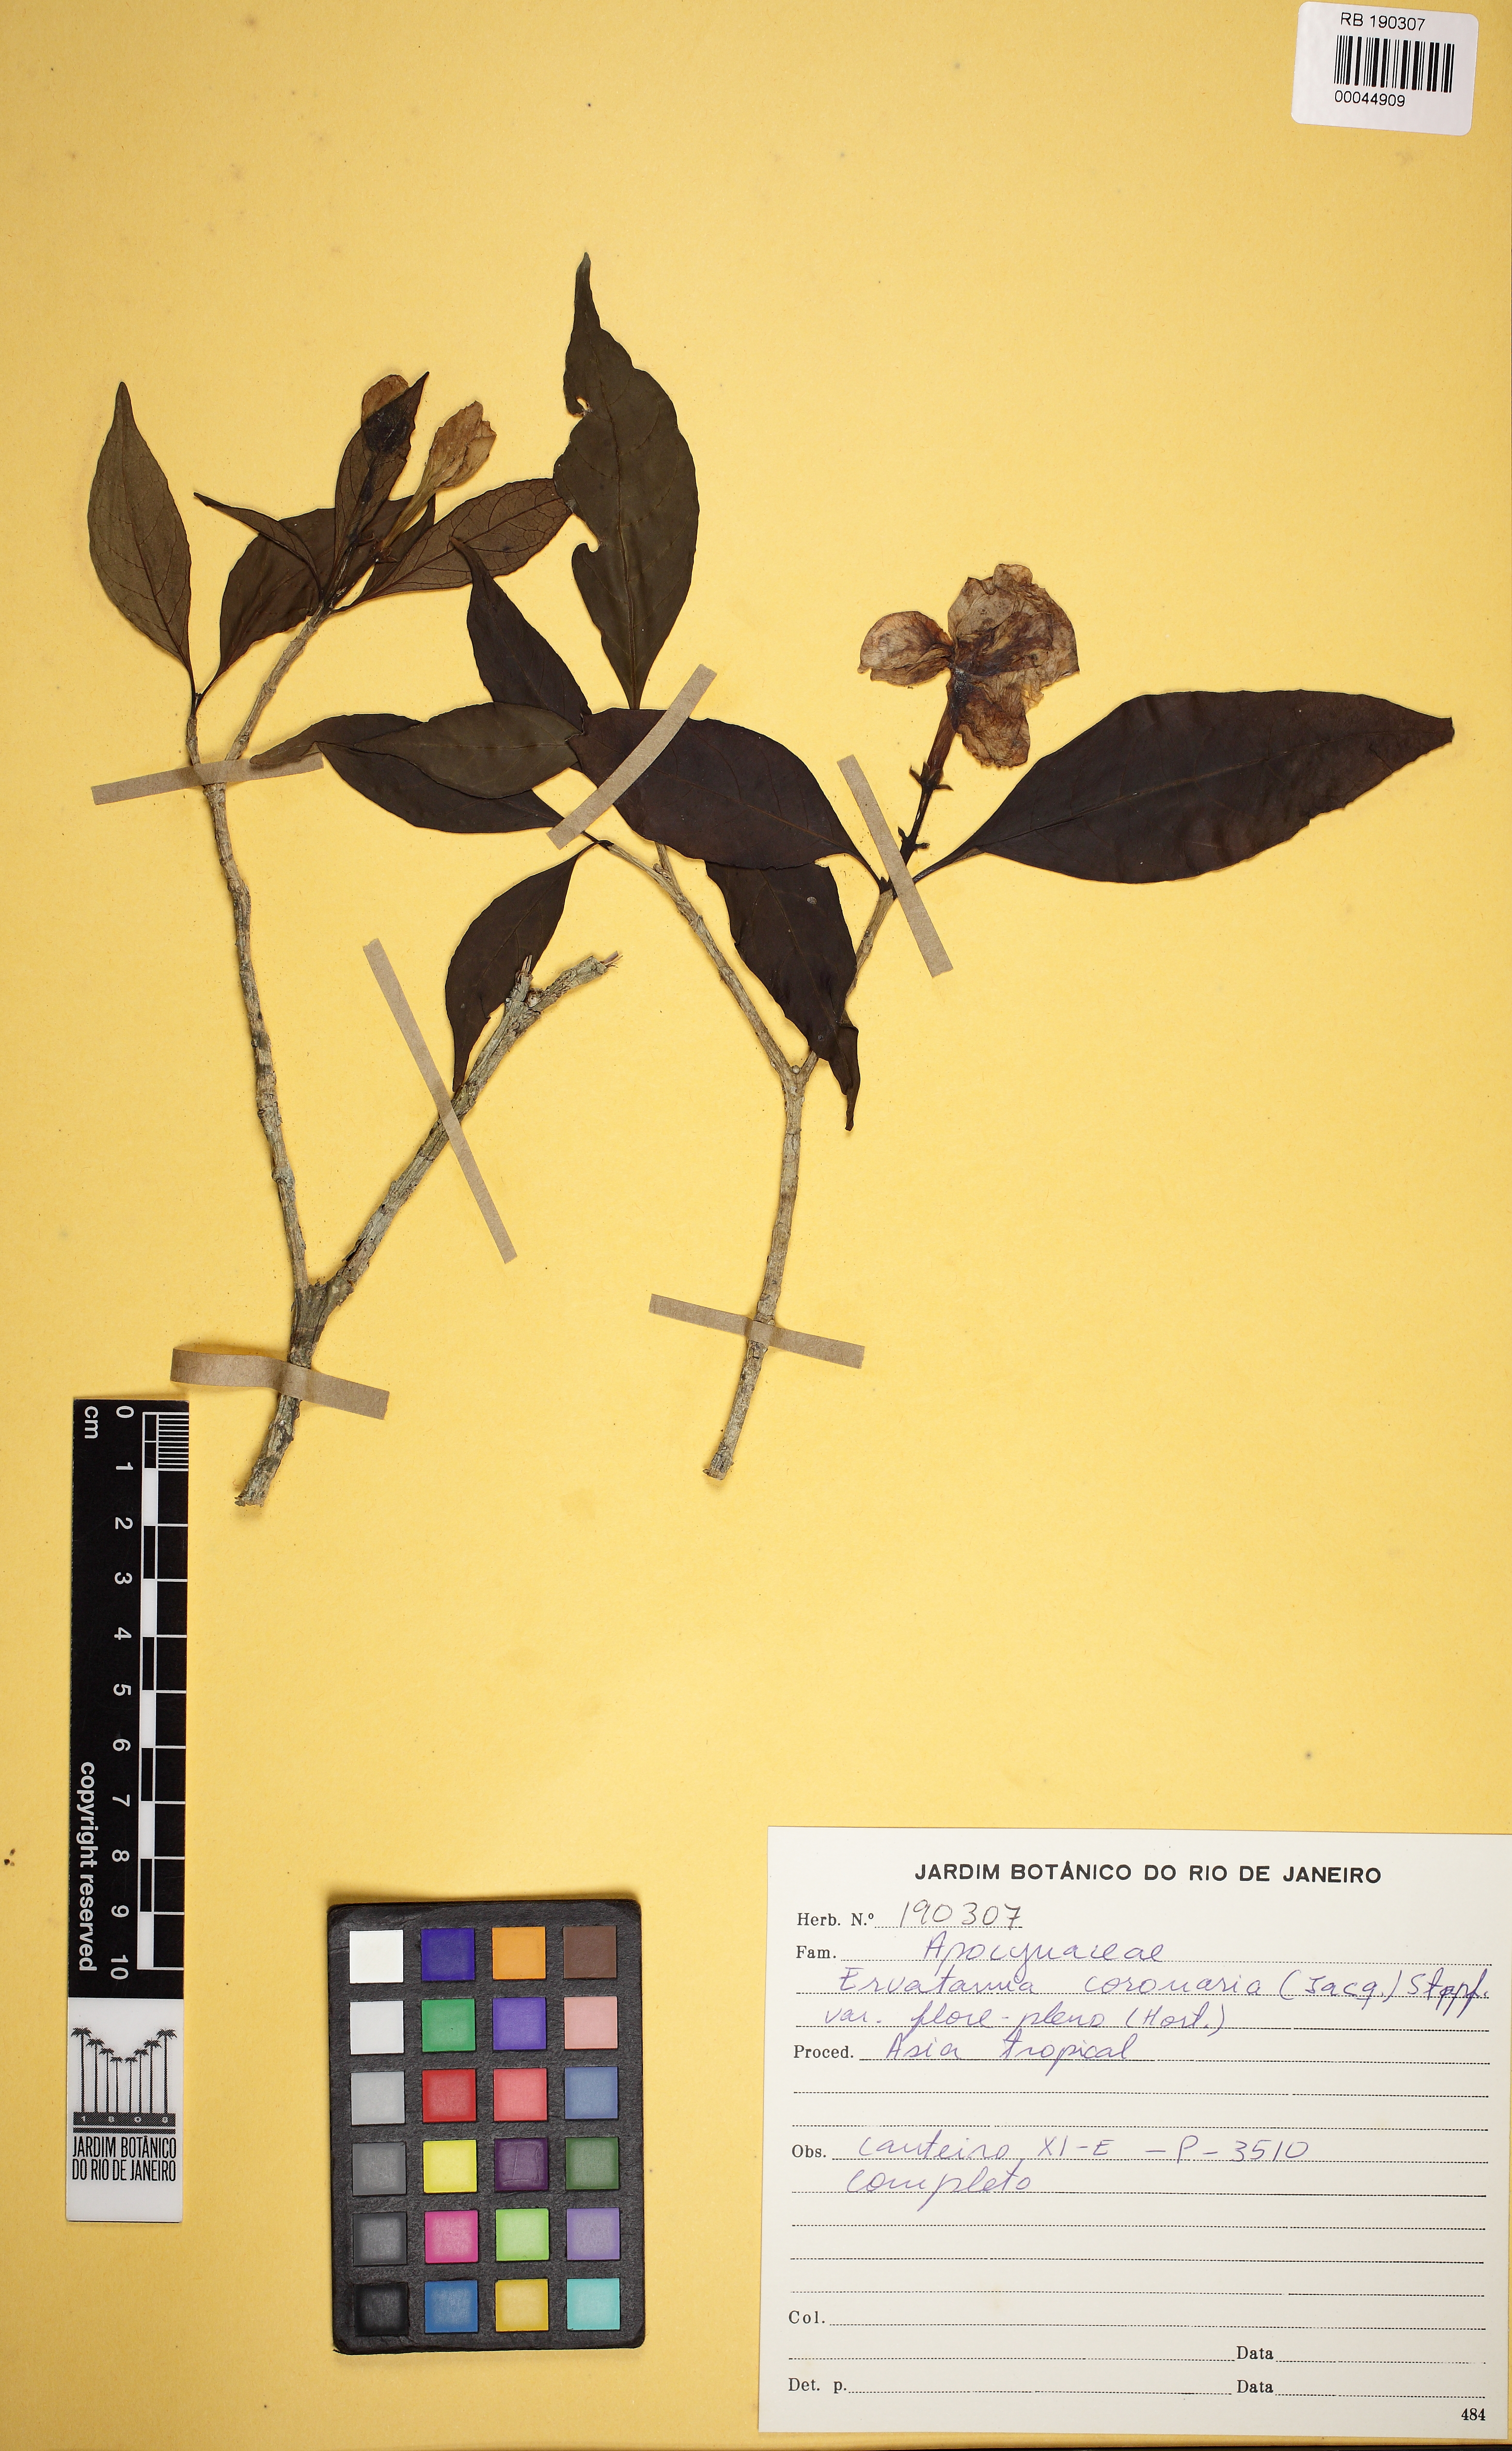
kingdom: Plantae
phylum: Tracheophyta
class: Magnoliopsida
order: Gentianales
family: Apocynaceae
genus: Tabernaemontana
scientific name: Tabernaemontana divaricata
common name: Pinwheelflower
